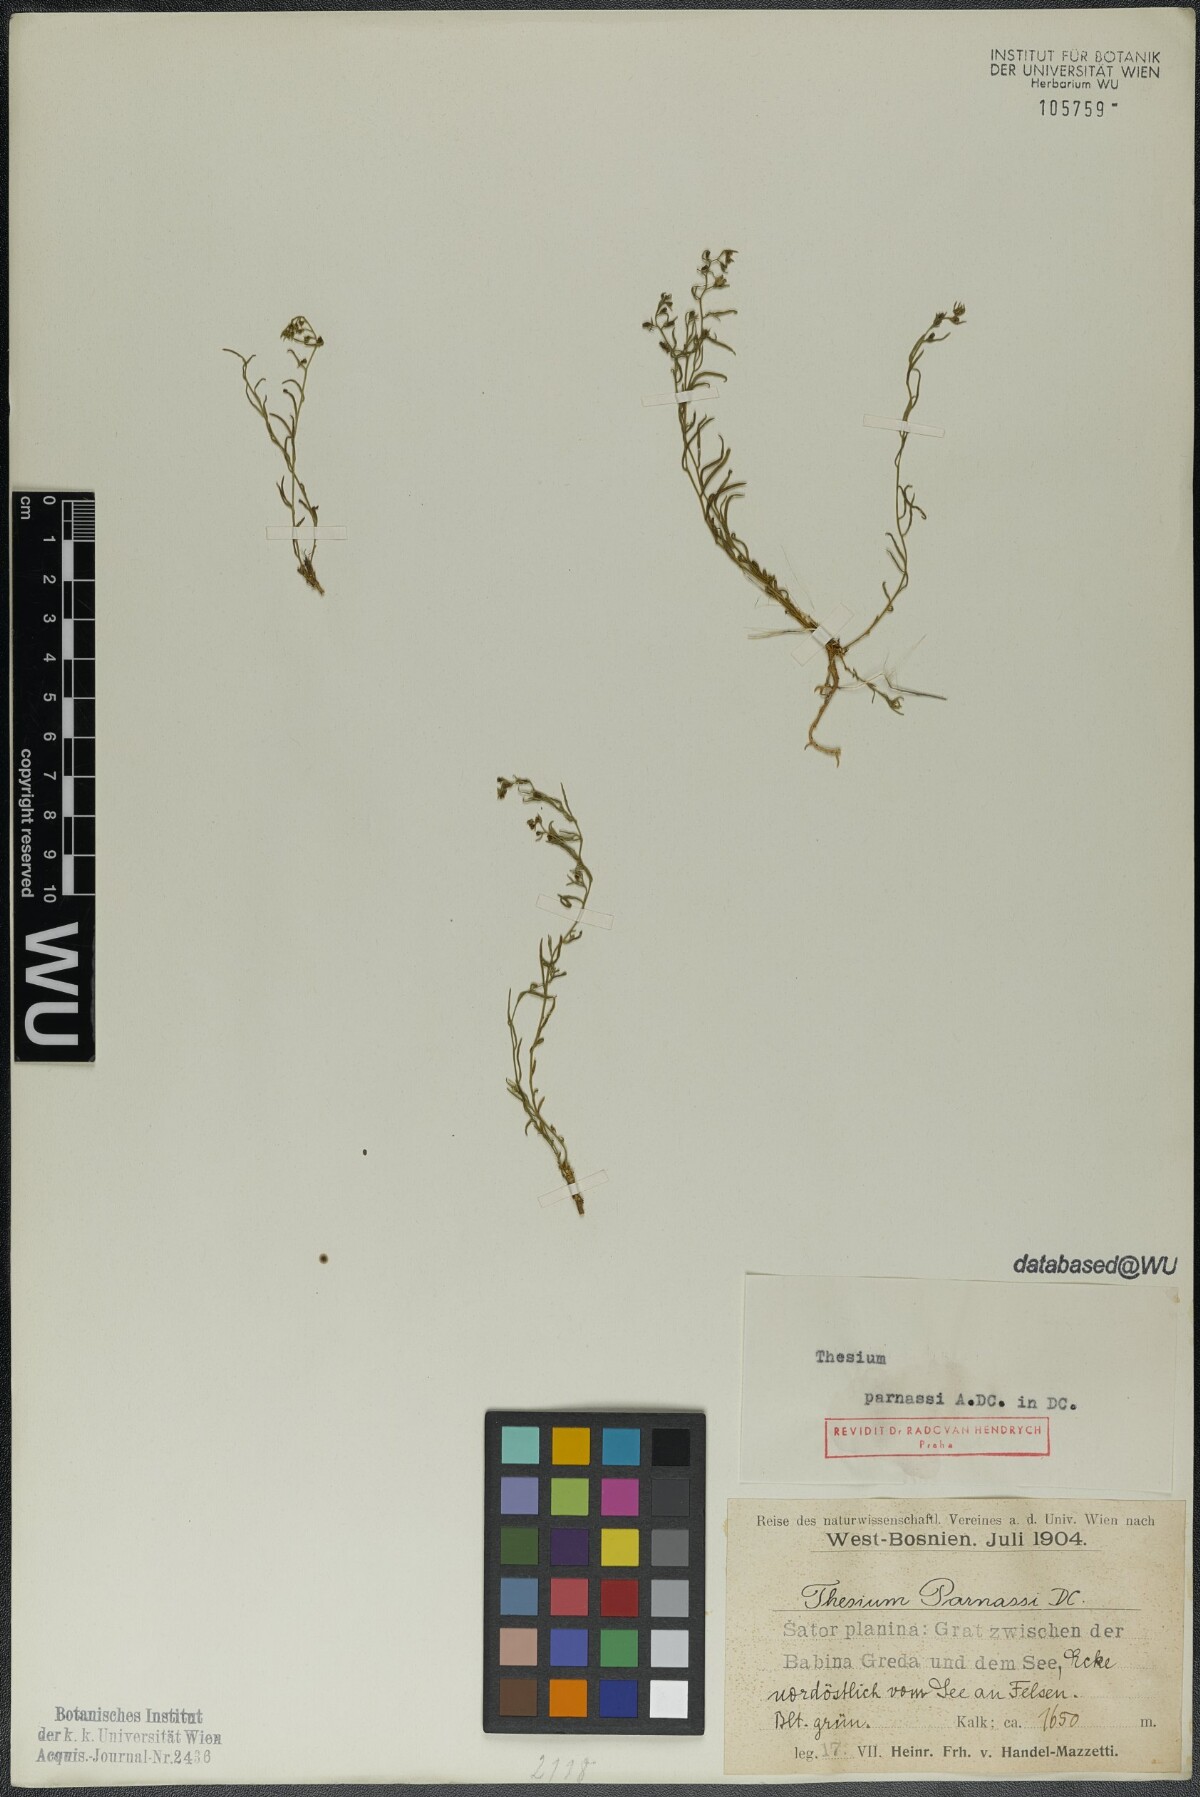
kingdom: Plantae
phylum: Tracheophyta
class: Magnoliopsida
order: Santalales
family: Thesiaceae
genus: Thesium
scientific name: Thesium parnassi
